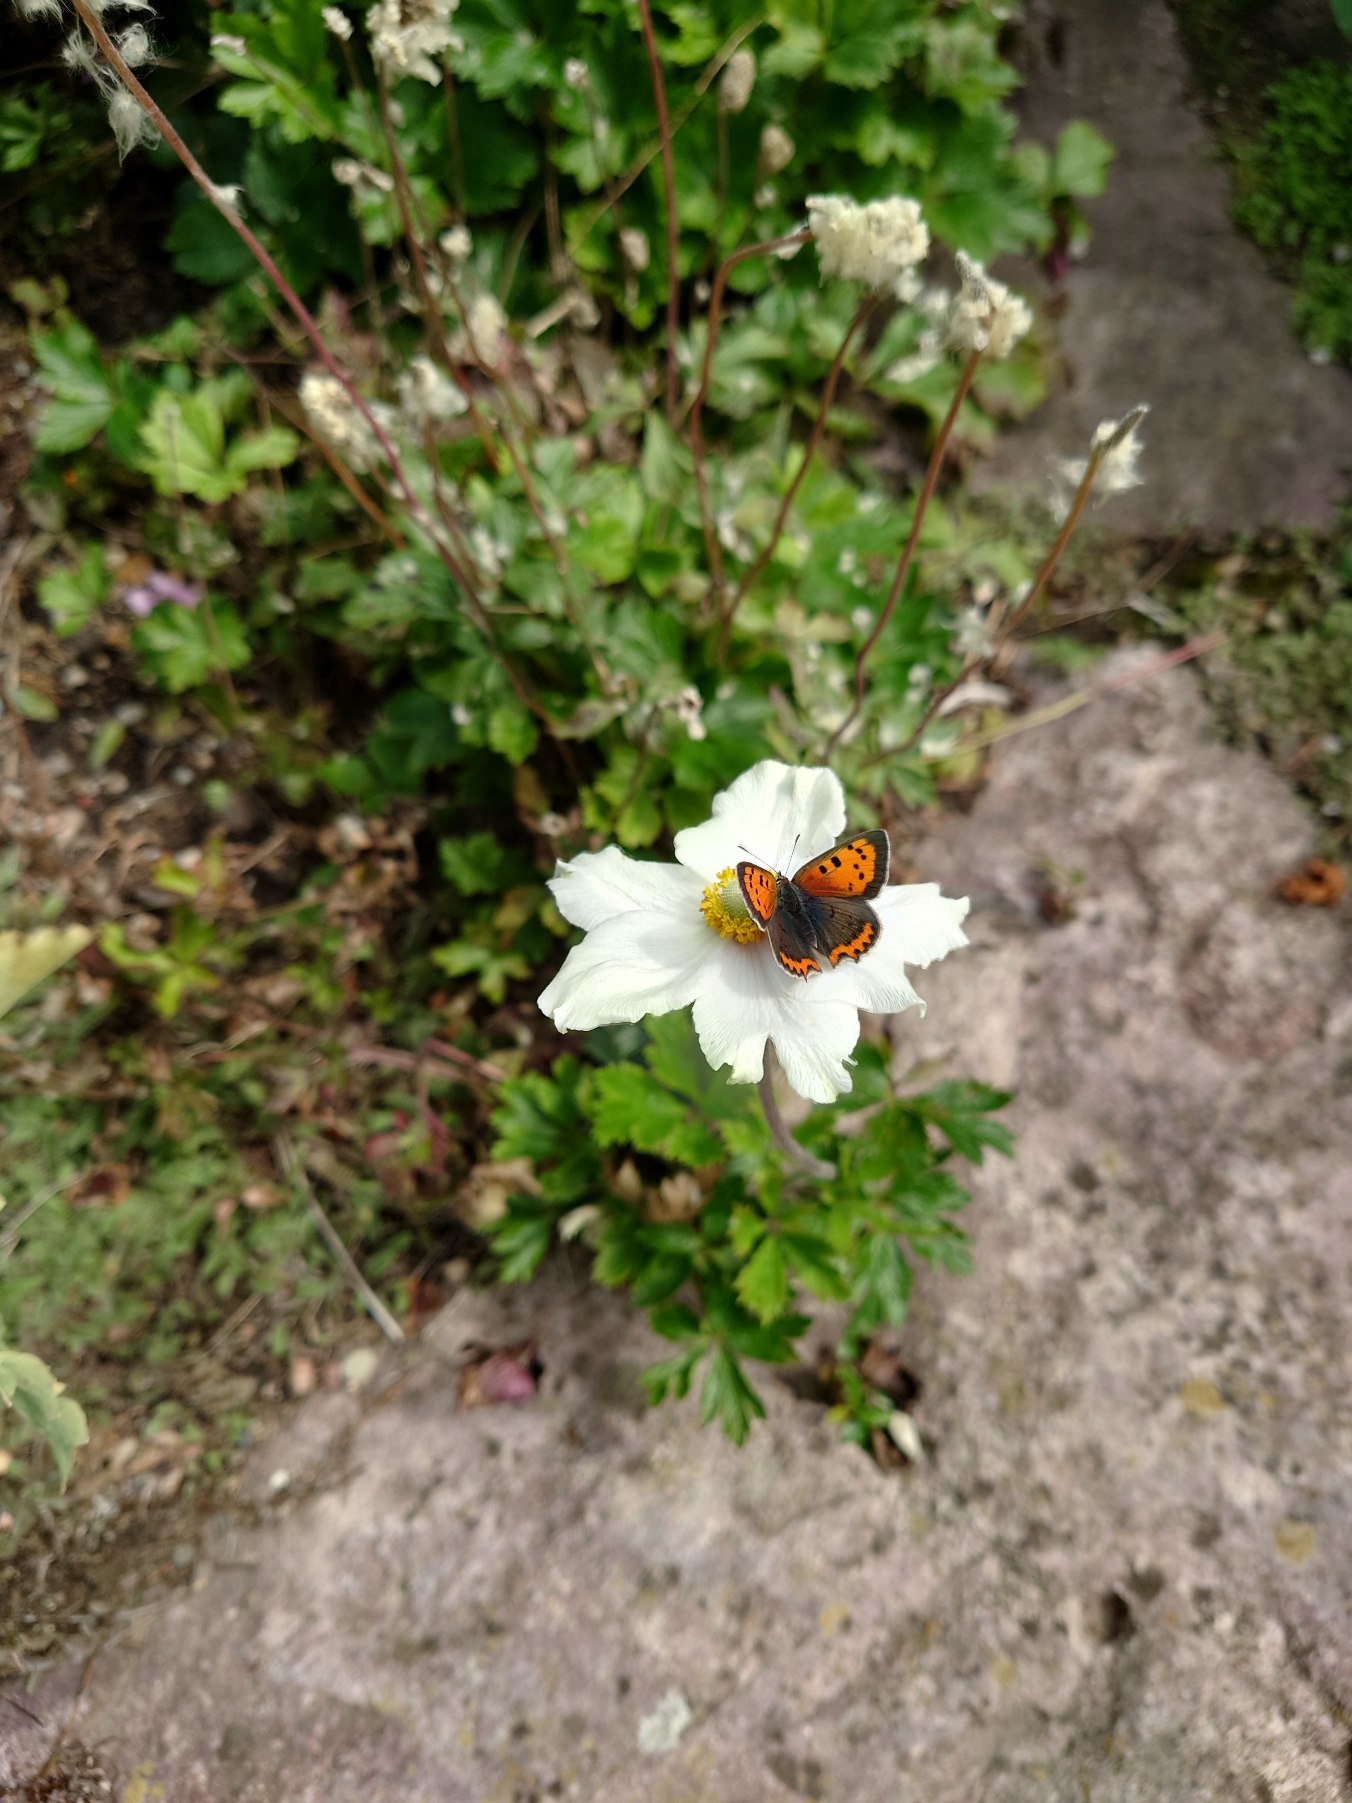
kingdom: Animalia
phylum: Arthropoda
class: Insecta
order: Lepidoptera
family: Lycaenidae
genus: Lycaena
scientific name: Lycaena phlaeas
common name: Lille ildfugl
